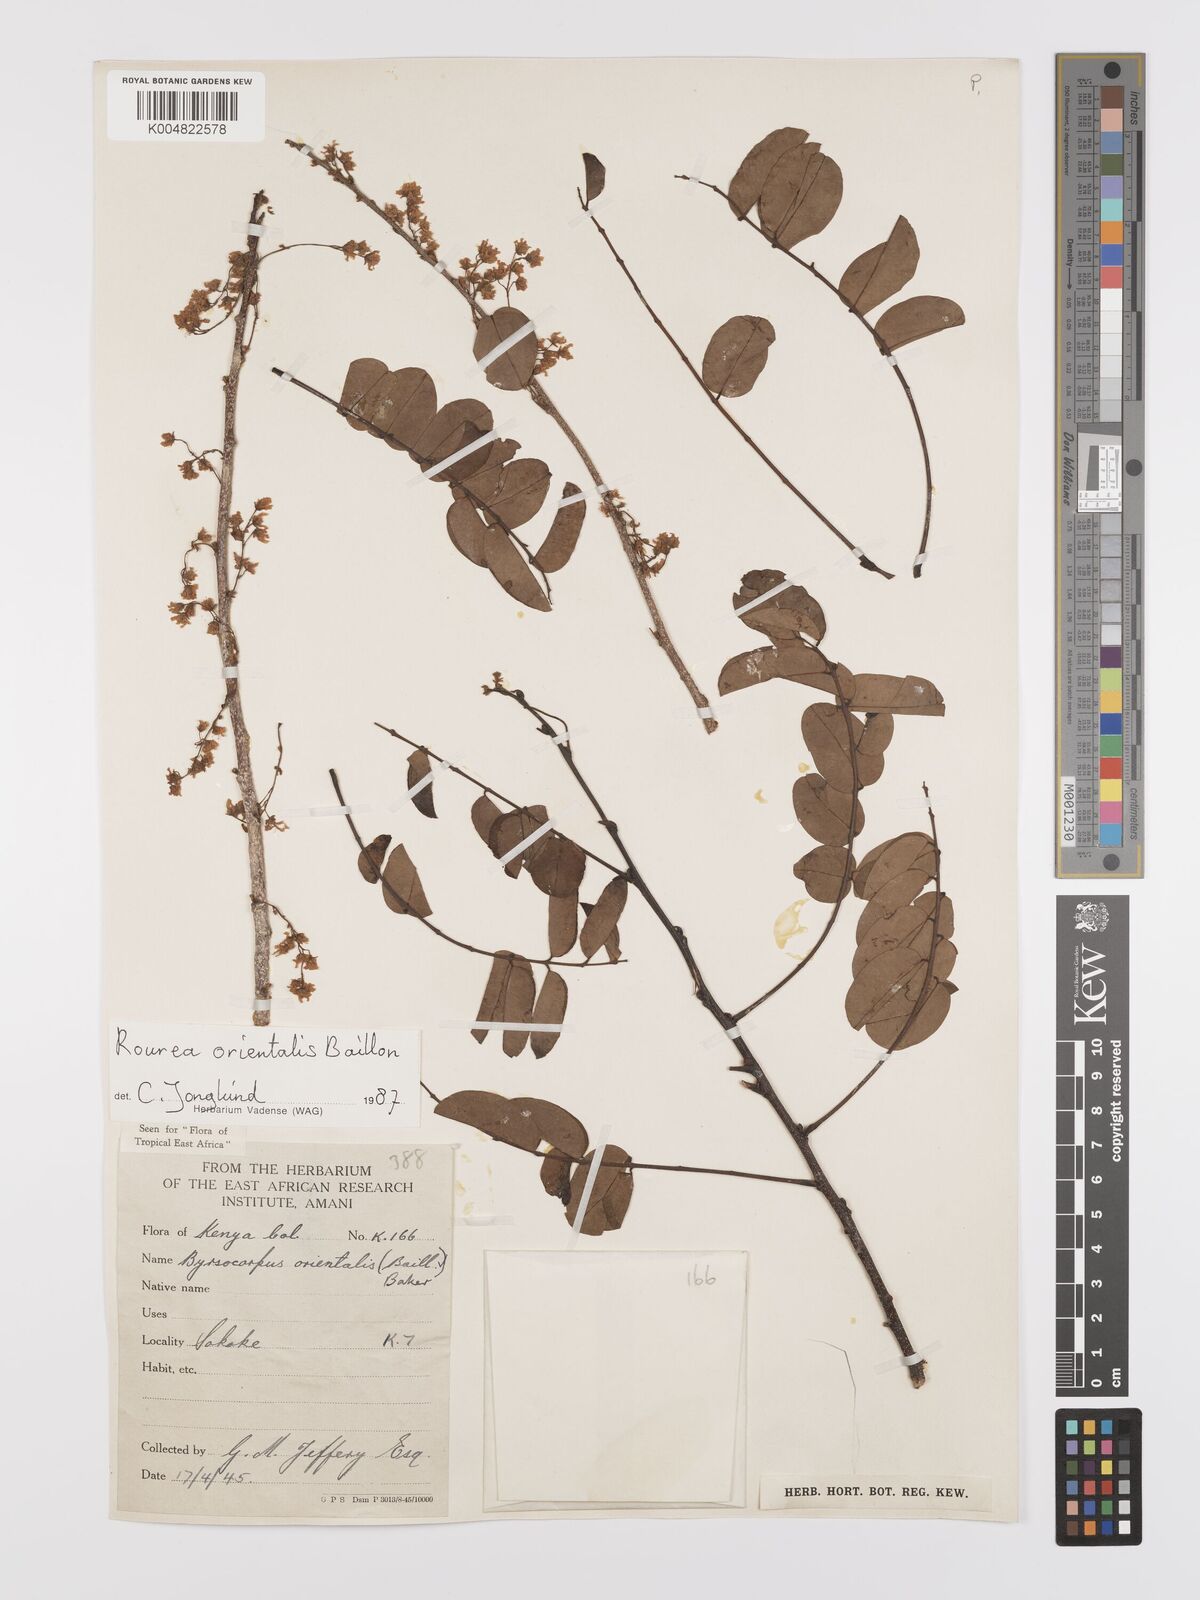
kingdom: Plantae
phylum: Tracheophyta
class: Magnoliopsida
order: Oxalidales
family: Connaraceae
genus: Rourea
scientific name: Rourea orientalis
